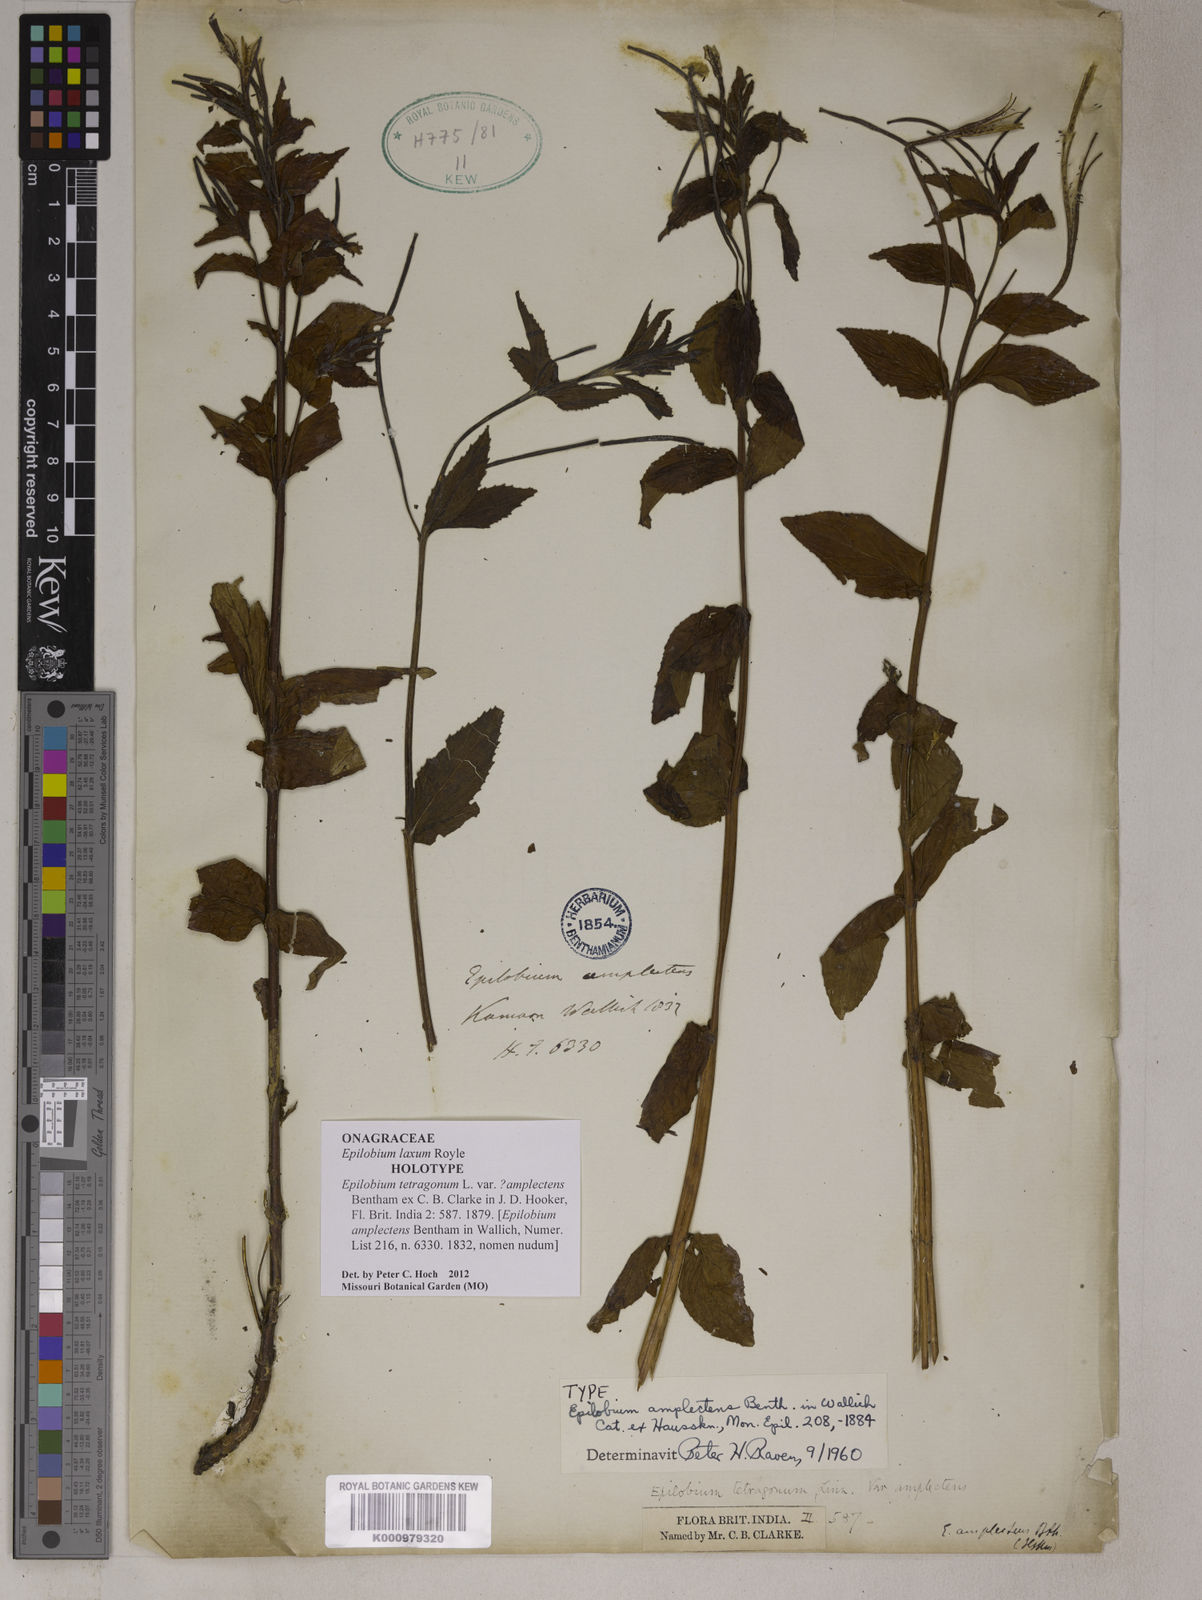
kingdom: Plantae
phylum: Tracheophyta
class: Magnoliopsida
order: Myrtales
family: Onagraceae
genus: Epilobium
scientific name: Epilobium laxum
